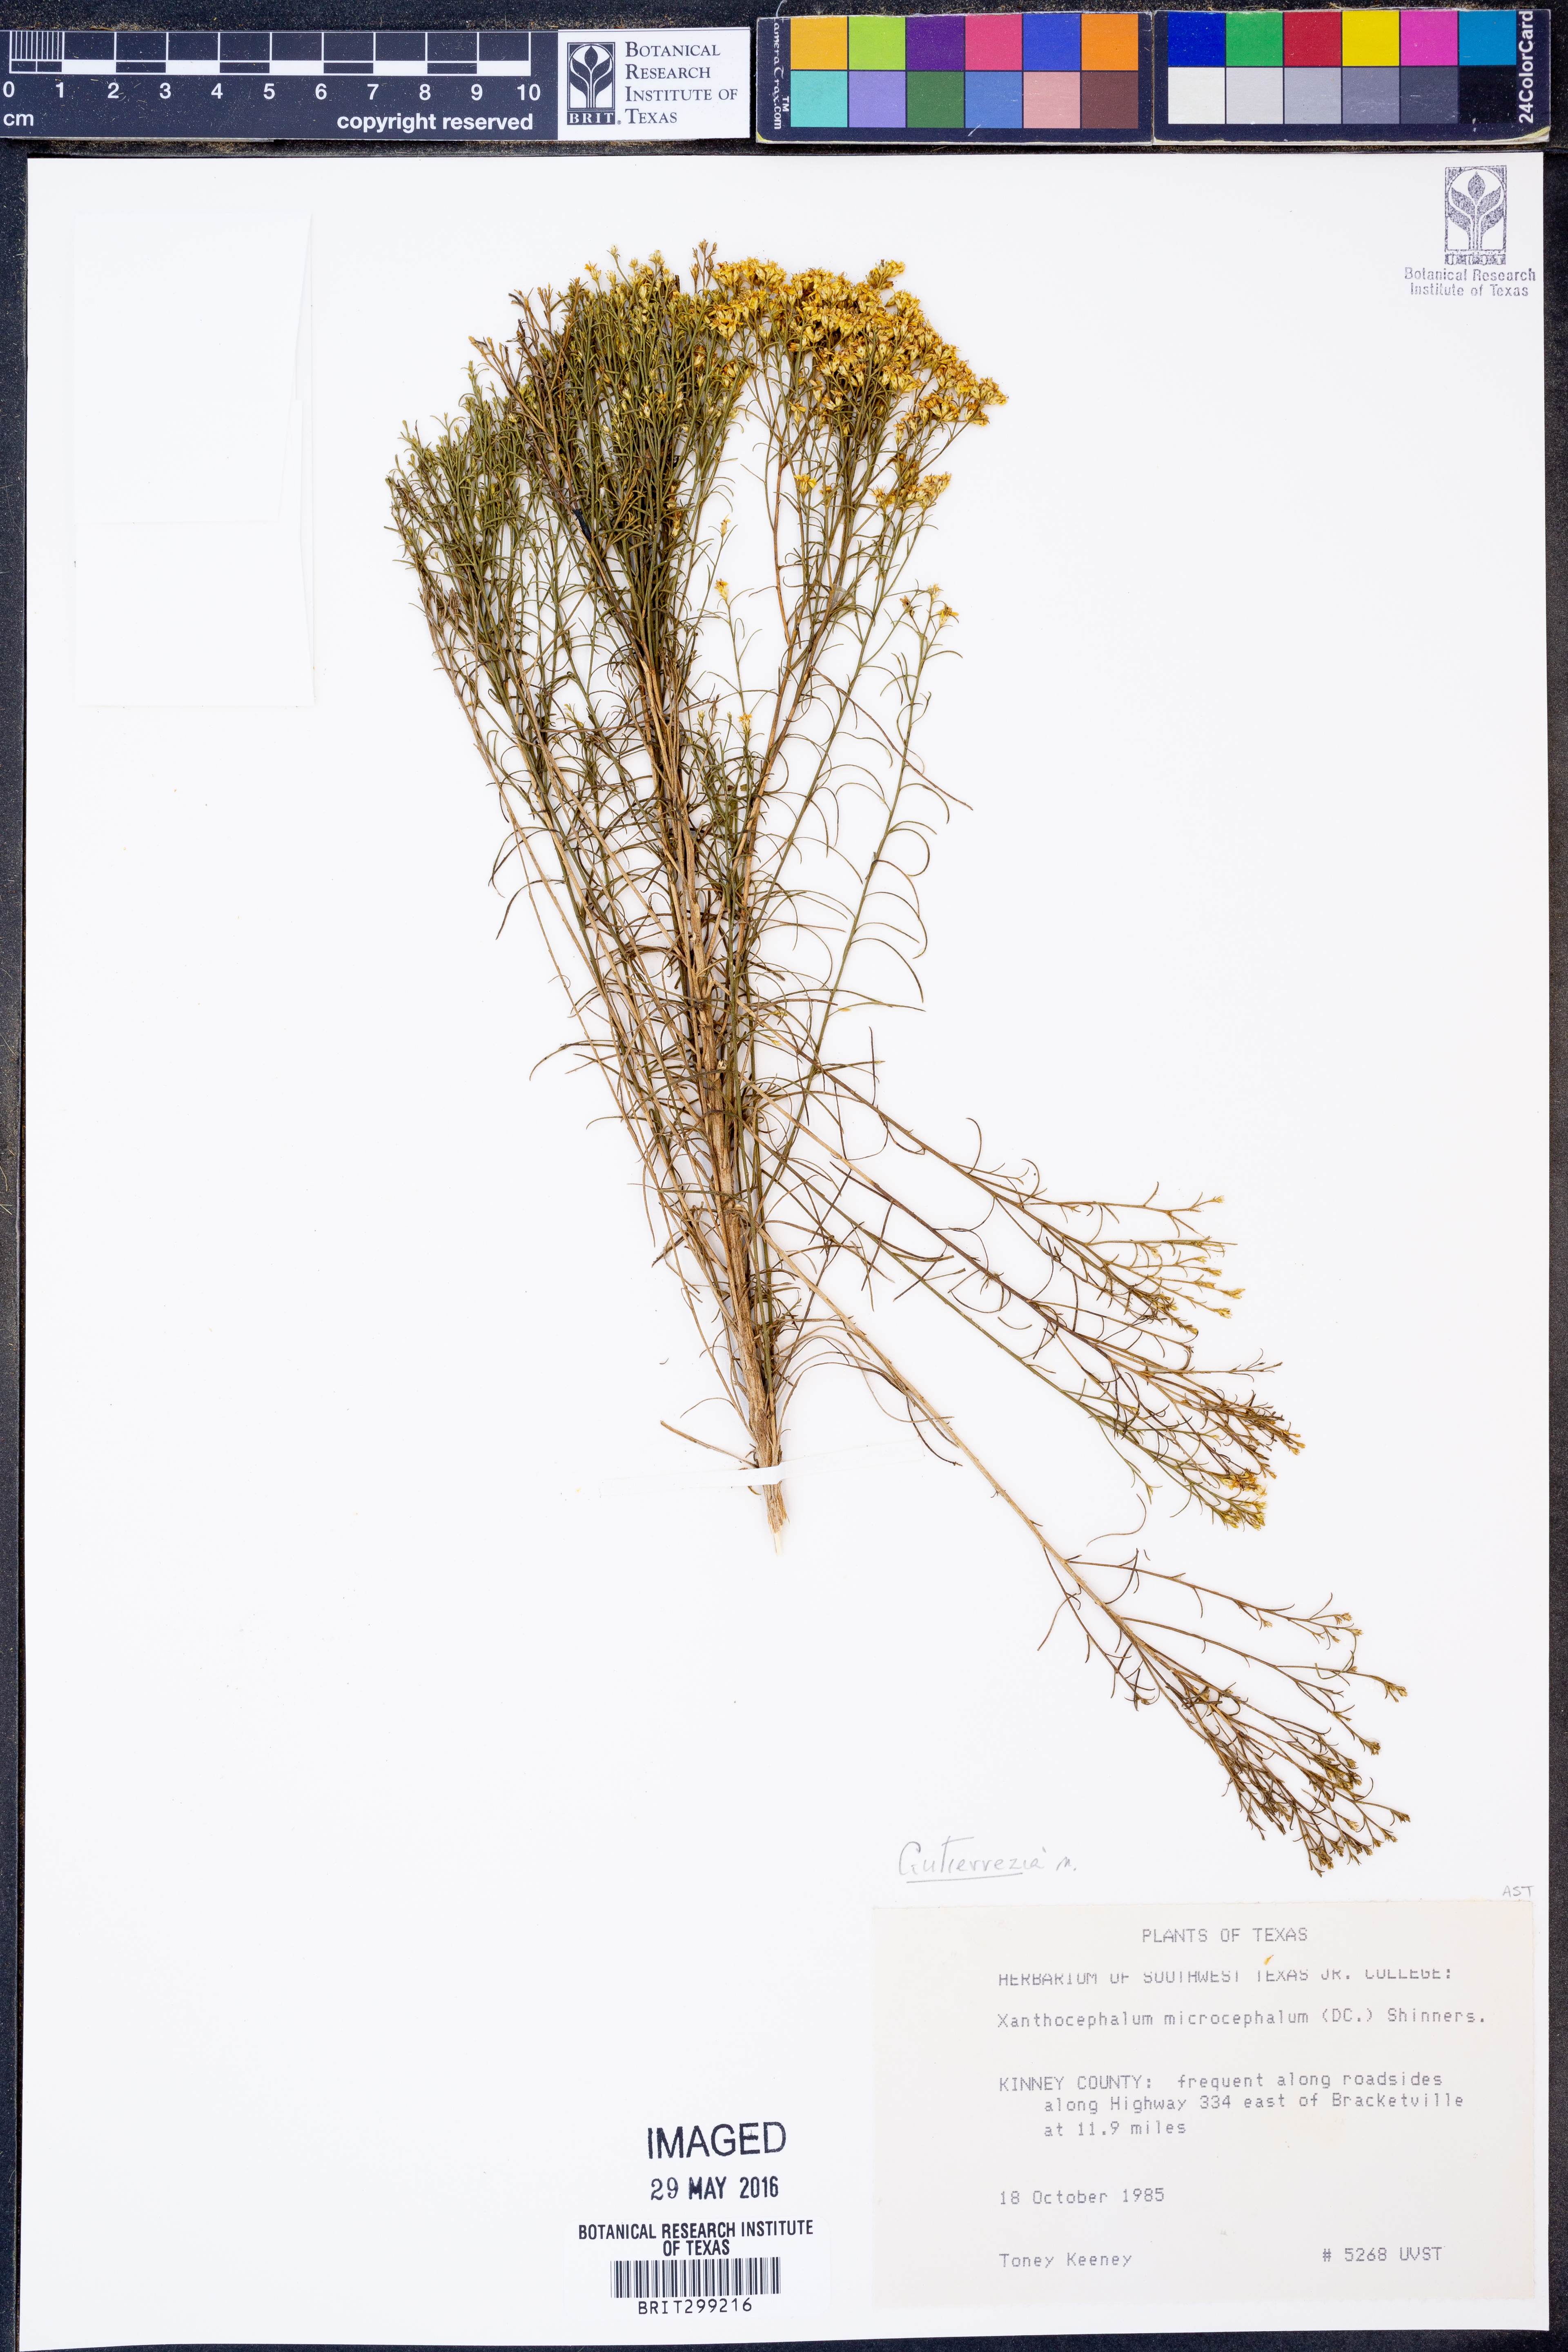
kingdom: Plantae
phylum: Tracheophyta
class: Magnoliopsida
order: Asterales
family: Asteraceae
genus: Gutierrezia
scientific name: Gutierrezia microcephala
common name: Thread snakeweed
